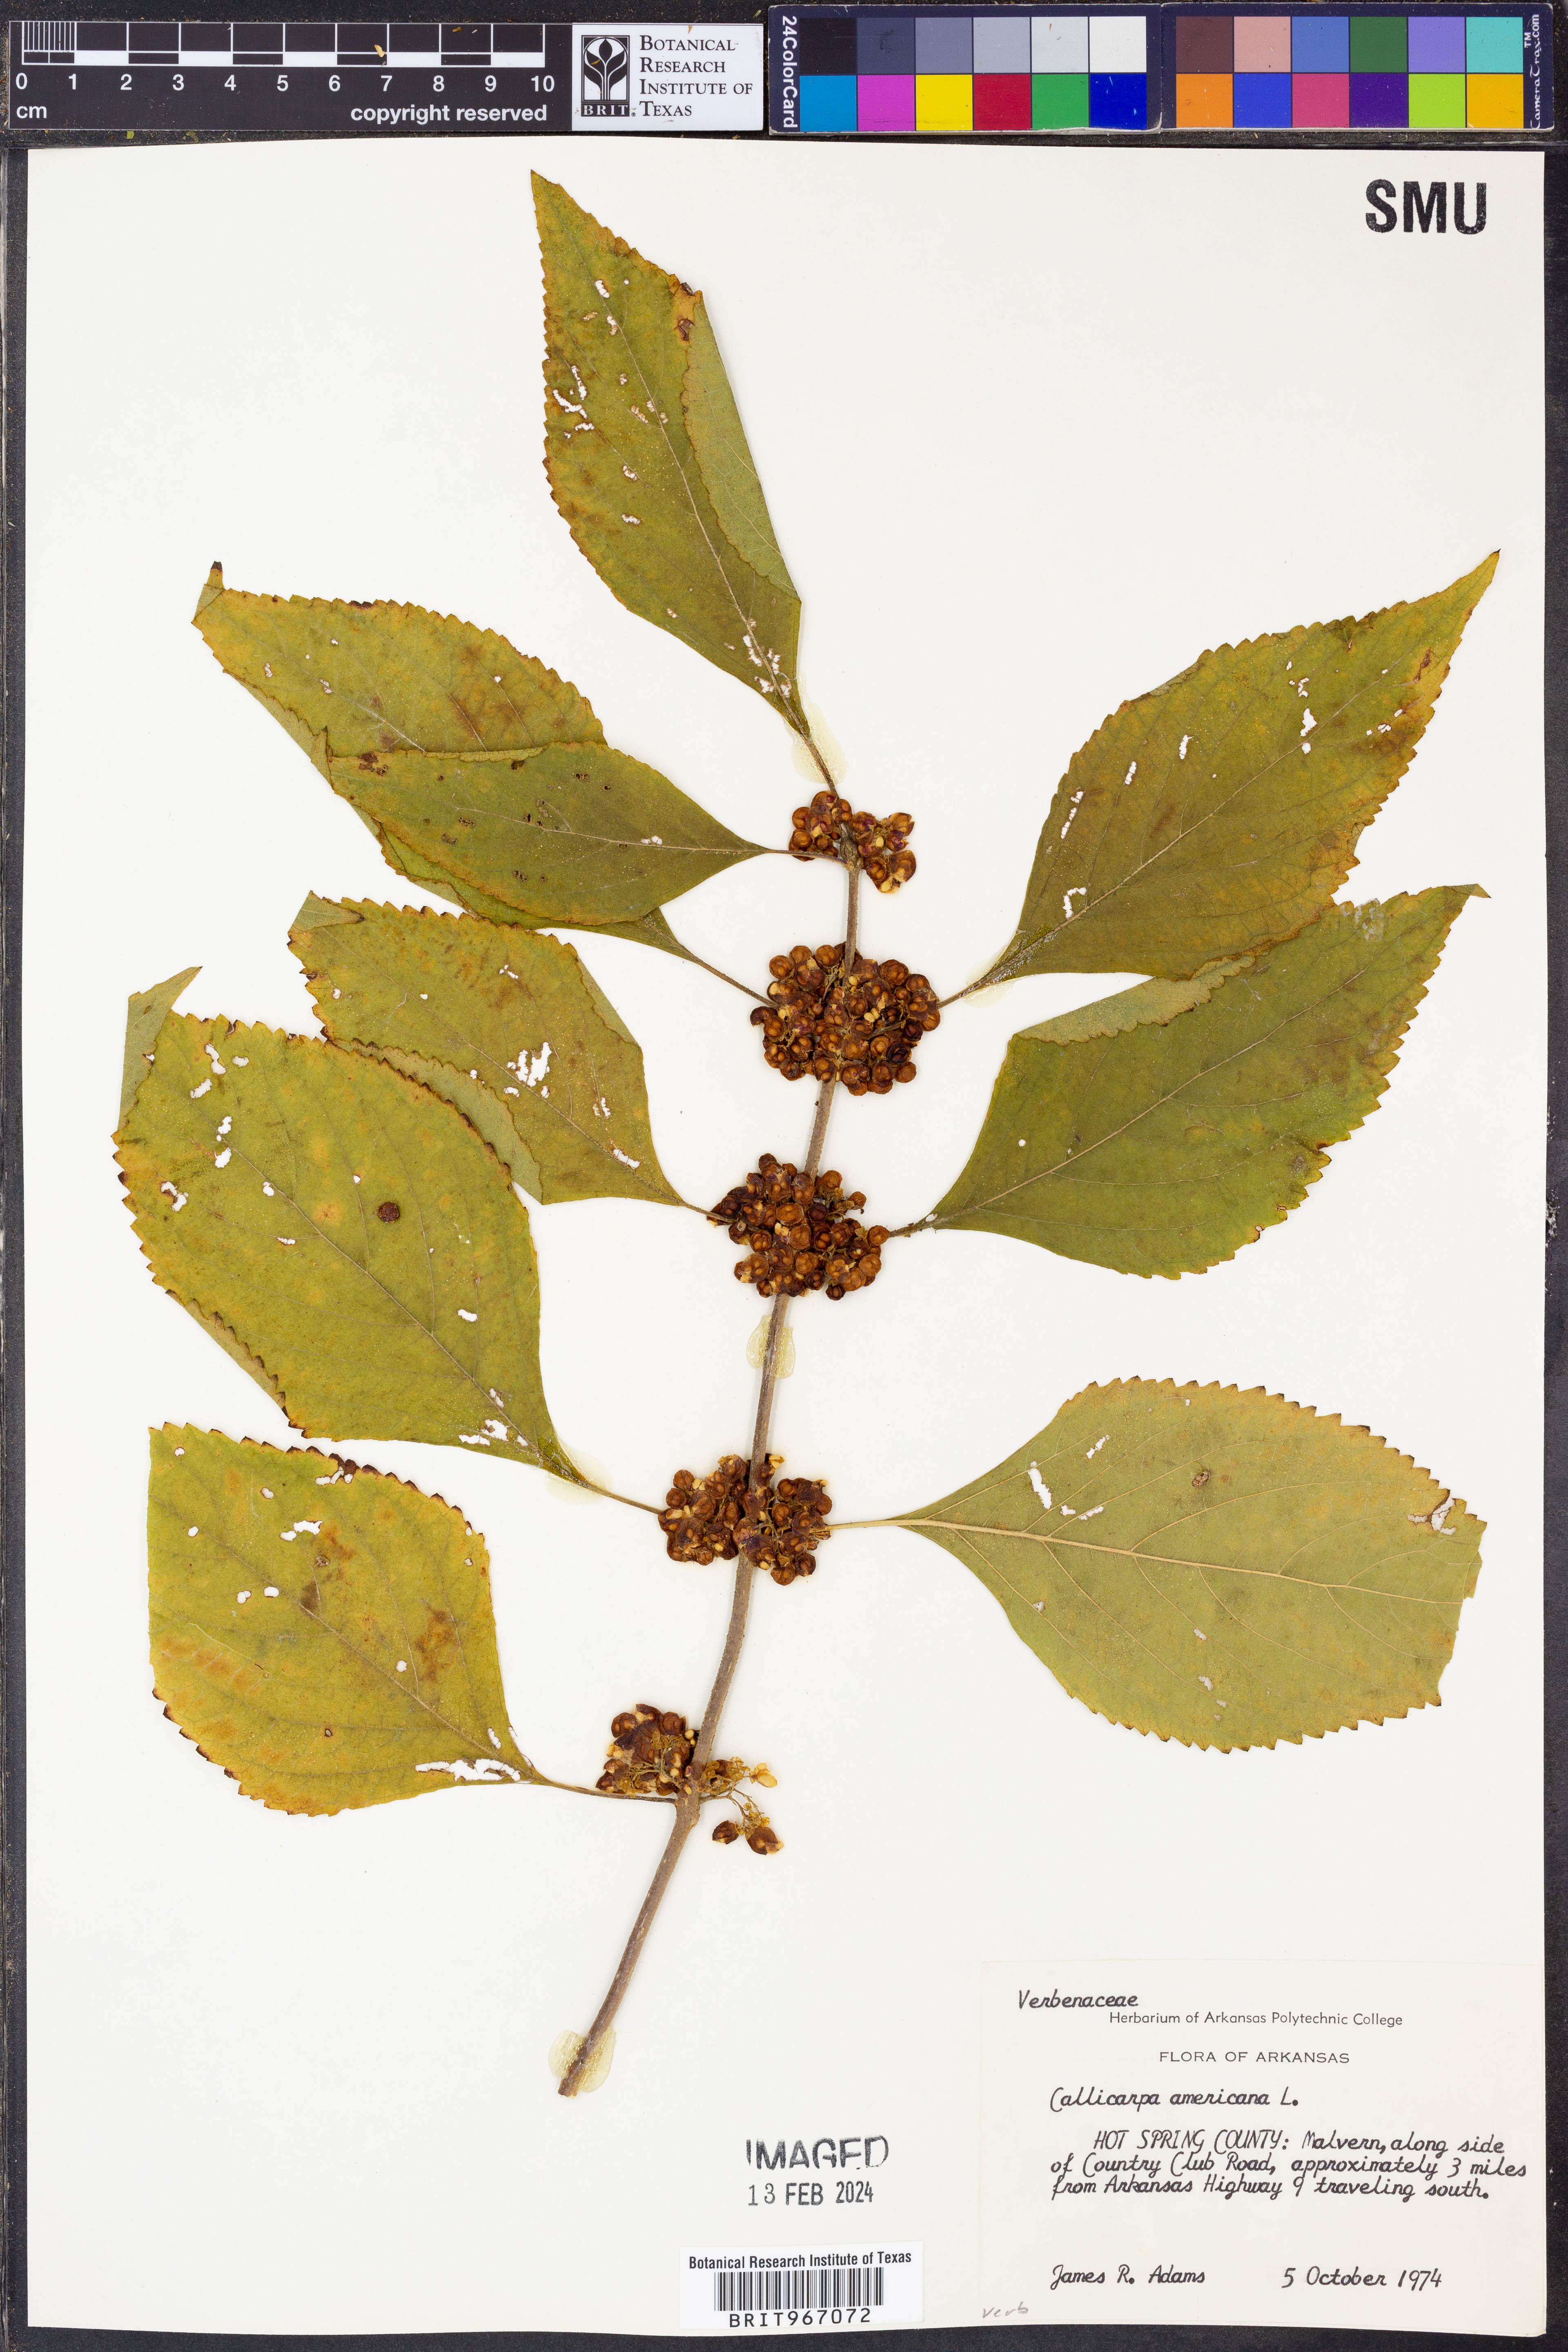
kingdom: Plantae
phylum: Tracheophyta
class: Magnoliopsida
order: Lamiales
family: Lamiaceae
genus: Callicarpa
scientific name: Callicarpa americana
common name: American beautyberry
